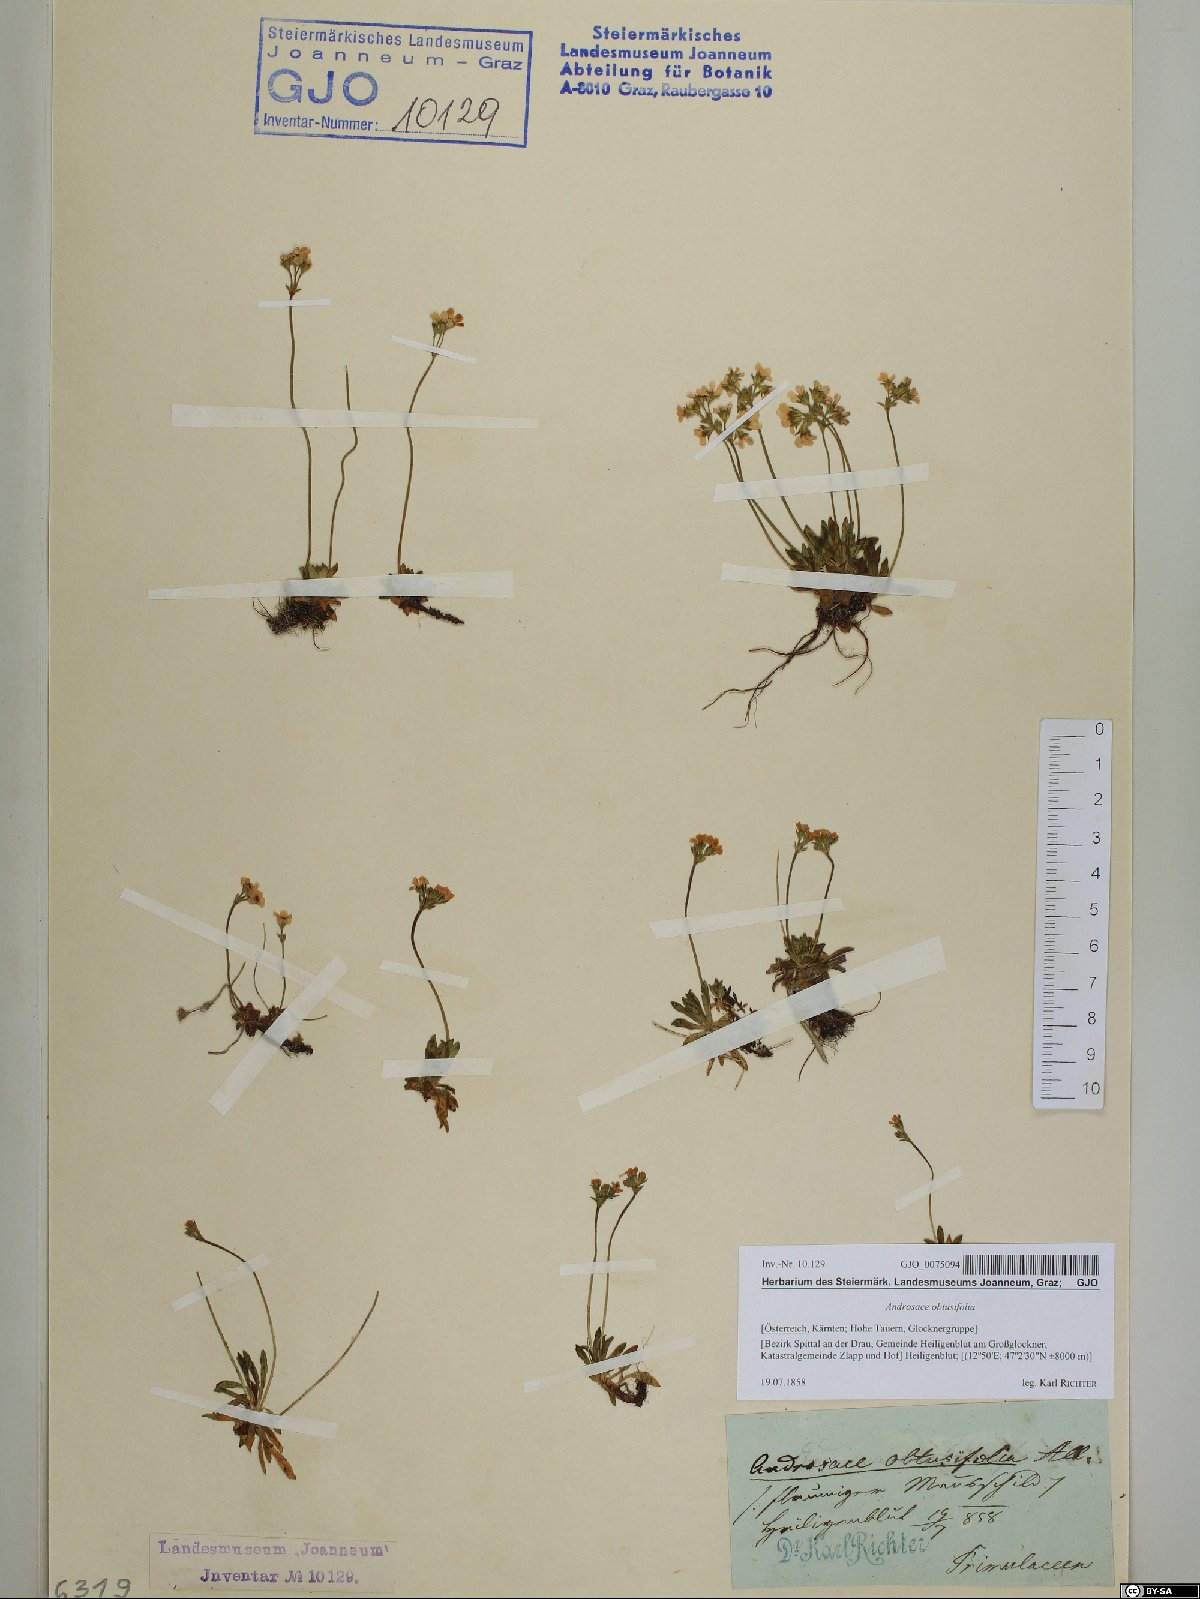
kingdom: Plantae
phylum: Tracheophyta
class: Magnoliopsida
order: Ericales
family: Primulaceae
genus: Androsace
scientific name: Androsace obtusifolia
